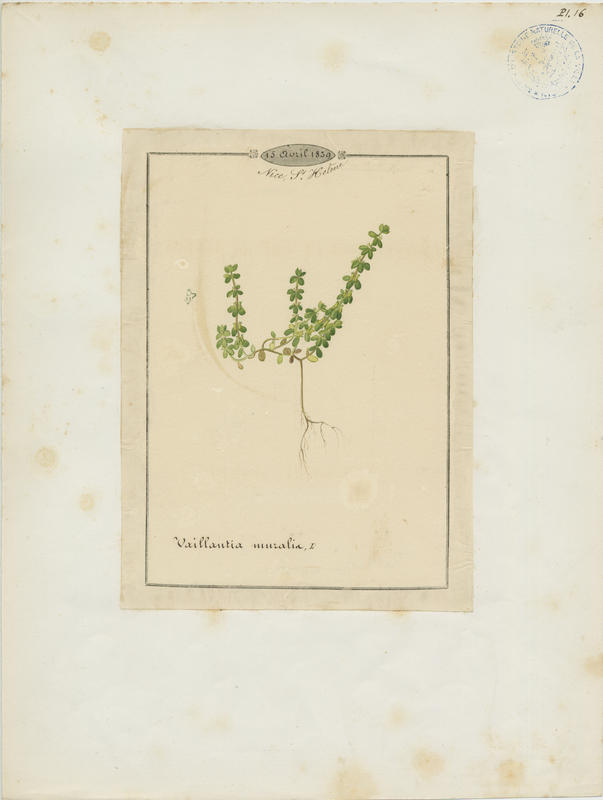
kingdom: Plantae
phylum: Tracheophyta
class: Magnoliopsida
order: Gentianales
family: Rubiaceae
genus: Valantia
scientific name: Valantia muralis
